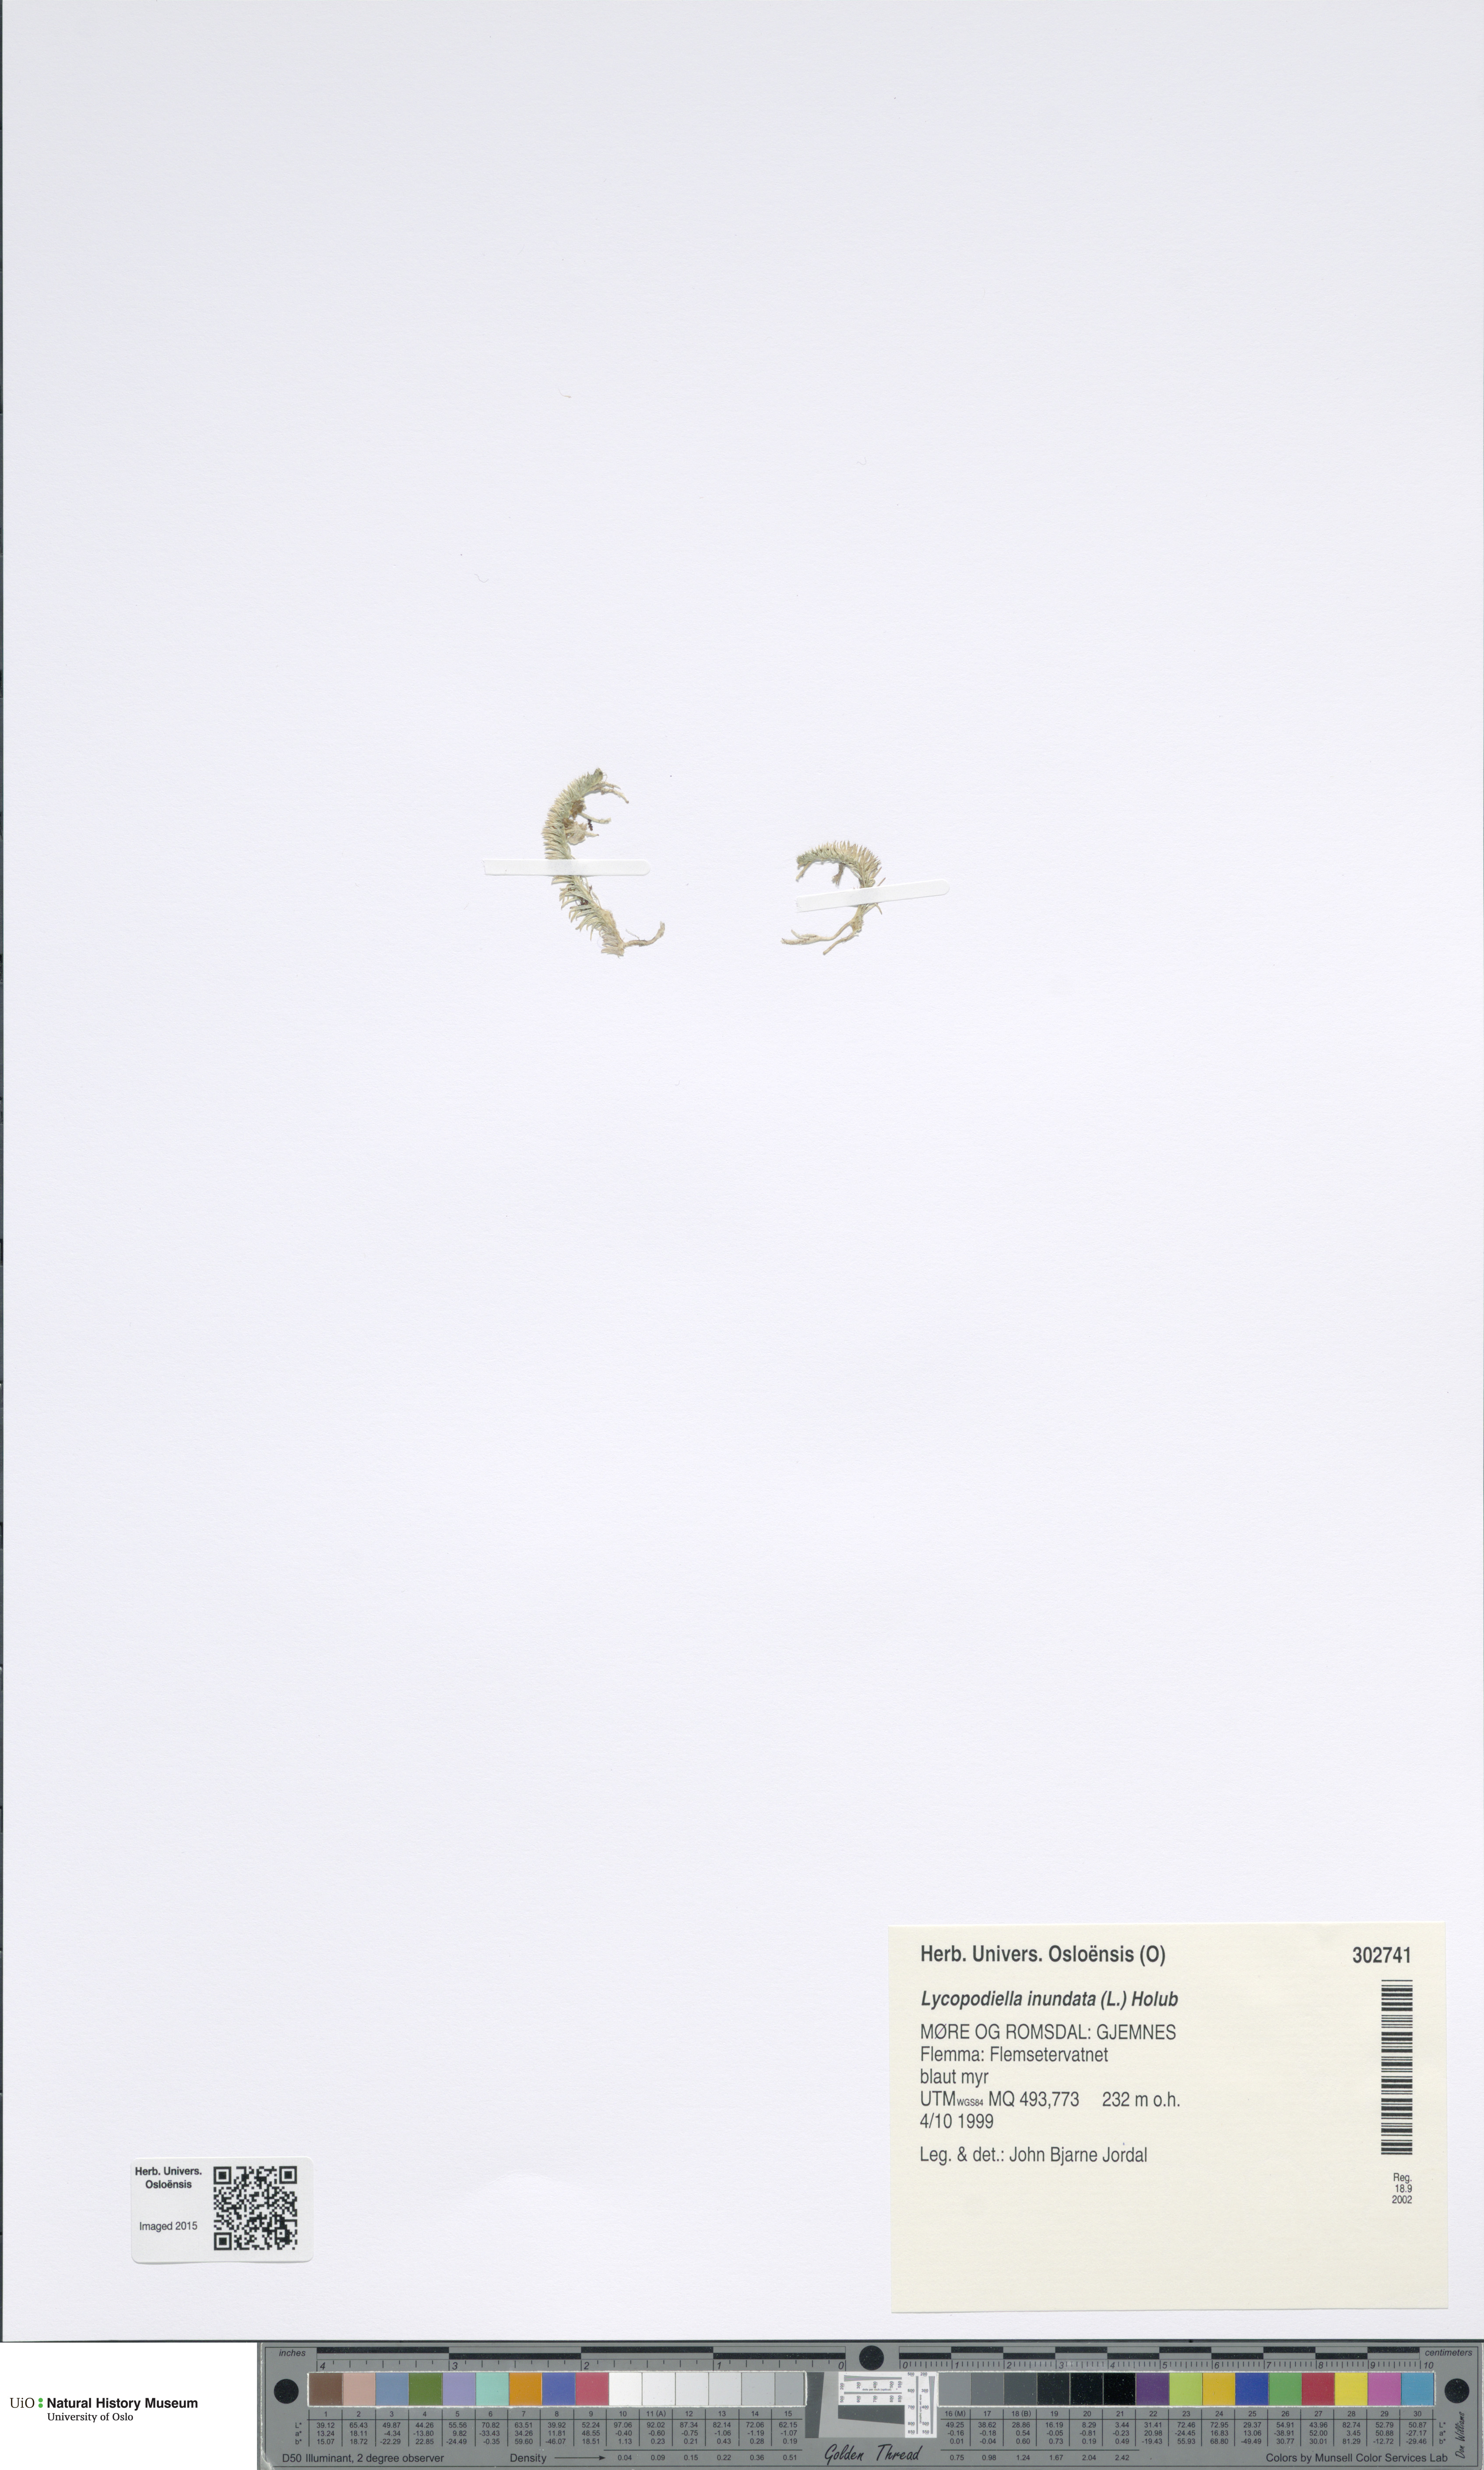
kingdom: Plantae
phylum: Tracheophyta
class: Lycopodiopsida
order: Lycopodiales
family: Lycopodiaceae
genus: Lycopodiella
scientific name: Lycopodiella inundata
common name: Marsh clubmoss
